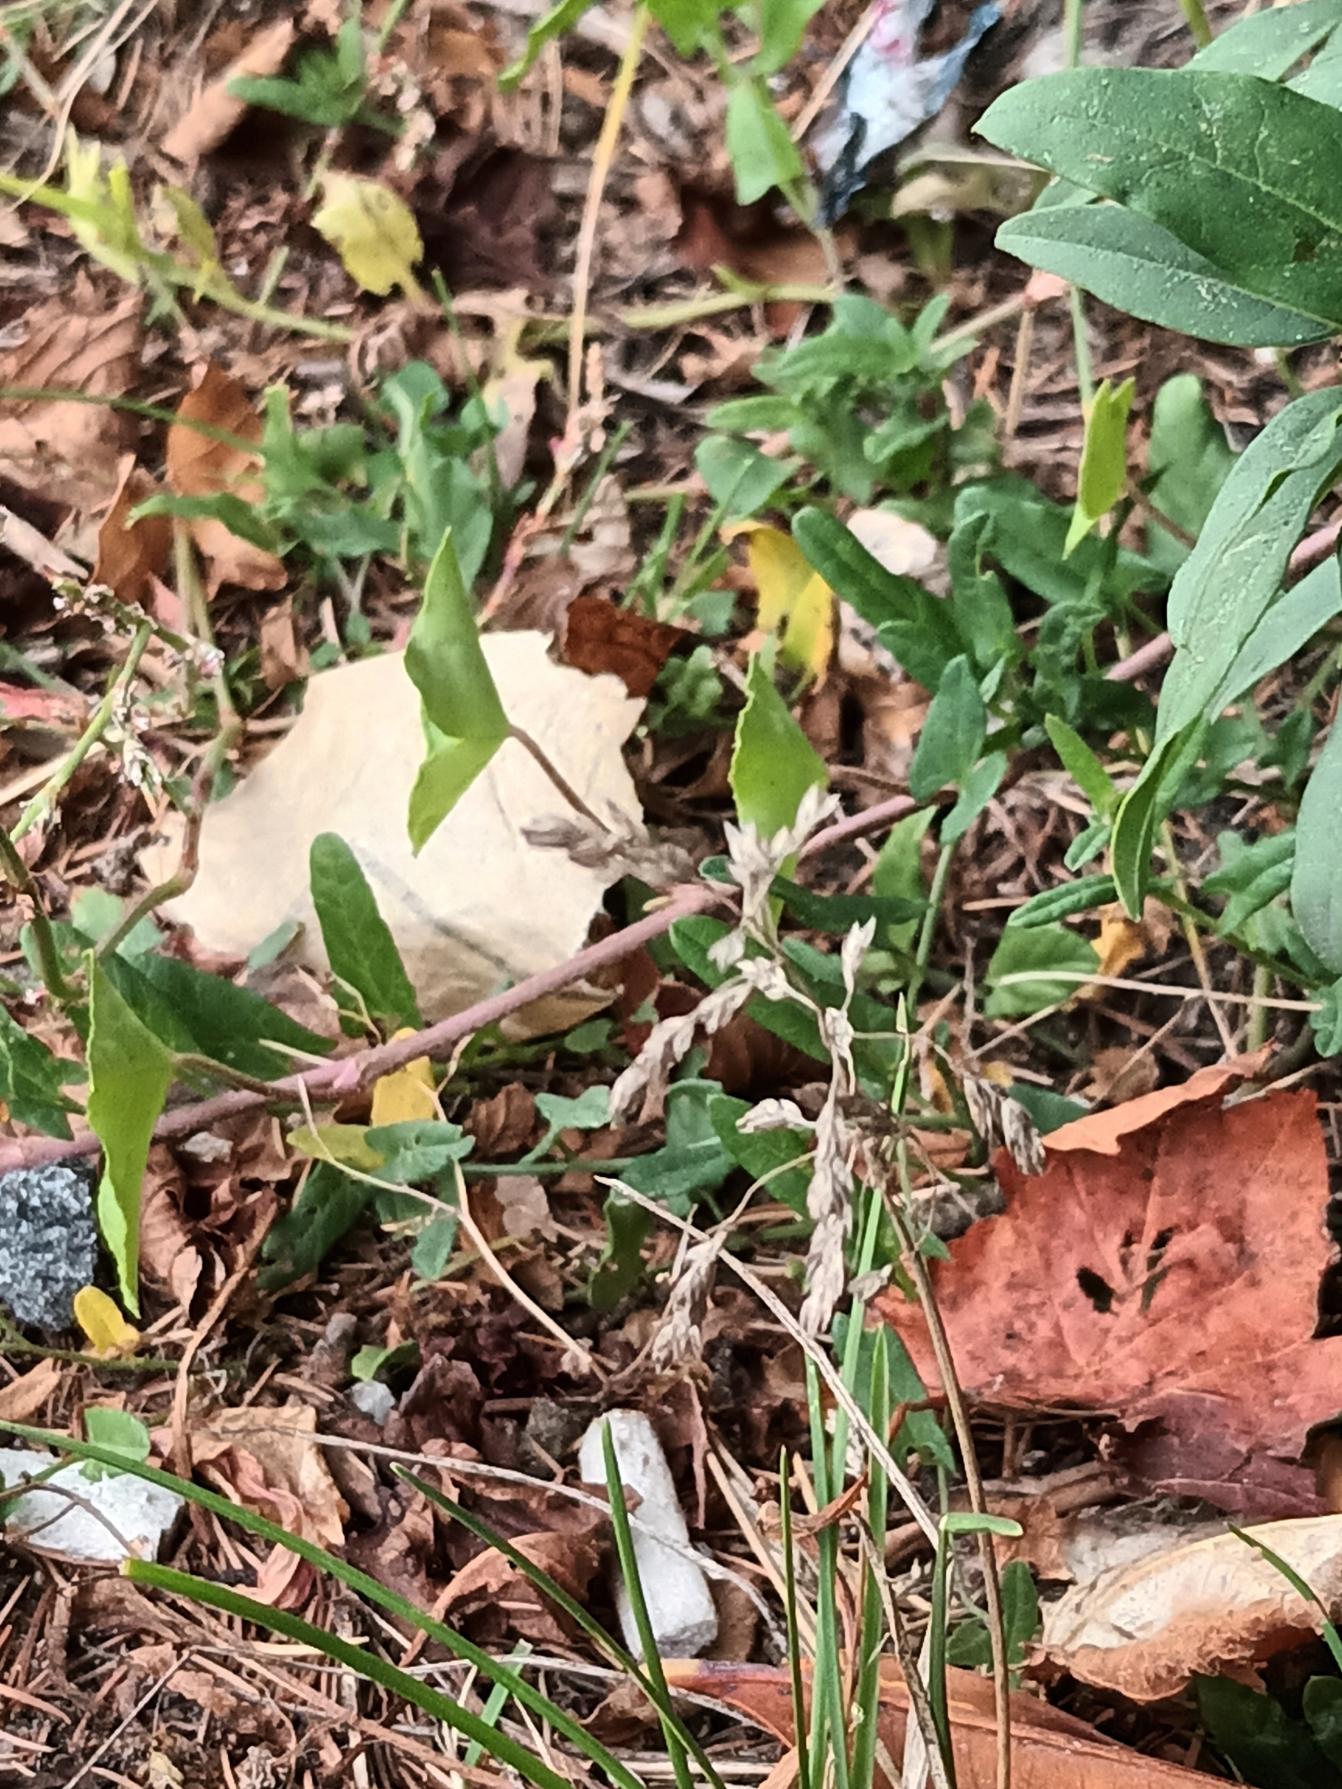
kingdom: Plantae
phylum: Tracheophyta
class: Liliopsida
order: Poales
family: Poaceae
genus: Poa
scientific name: Poa pratensis
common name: Eng-rapgræs (underart)
